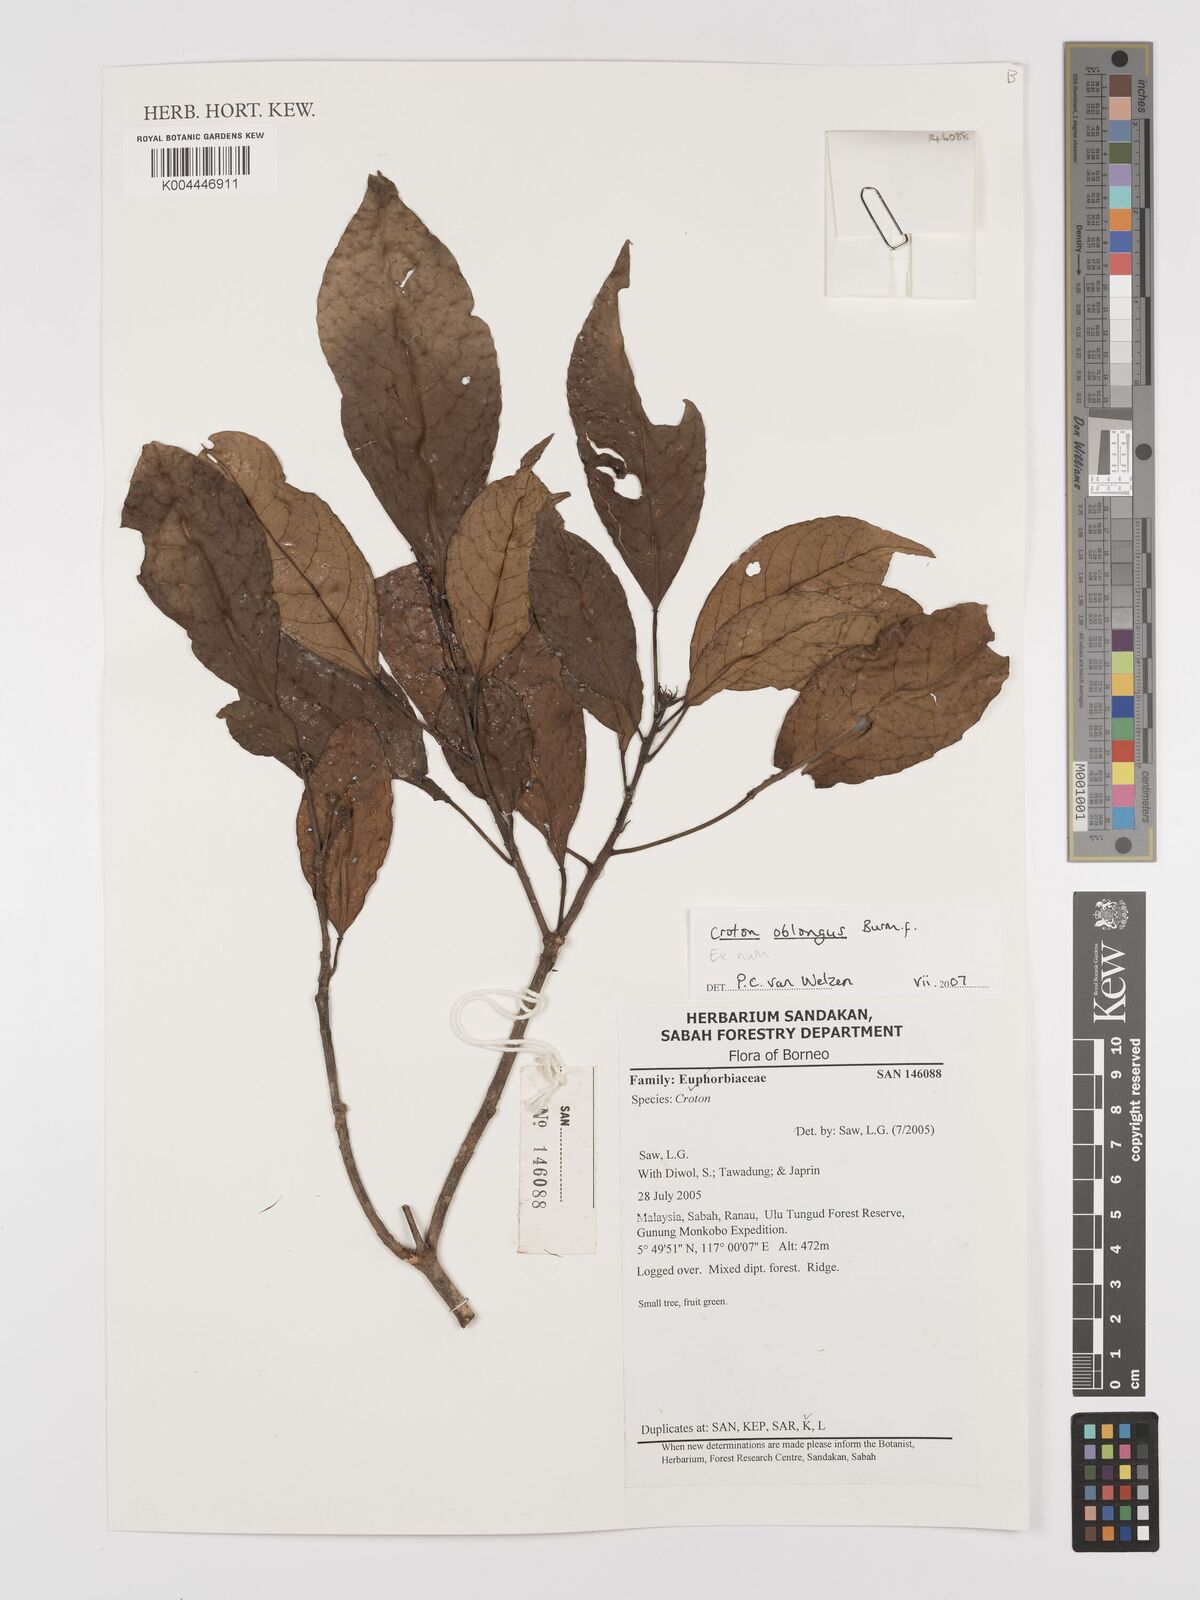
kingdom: Plantae
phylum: Tracheophyta
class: Magnoliopsida
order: Malpighiales
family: Euphorbiaceae
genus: Croton
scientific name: Croton oblongus
